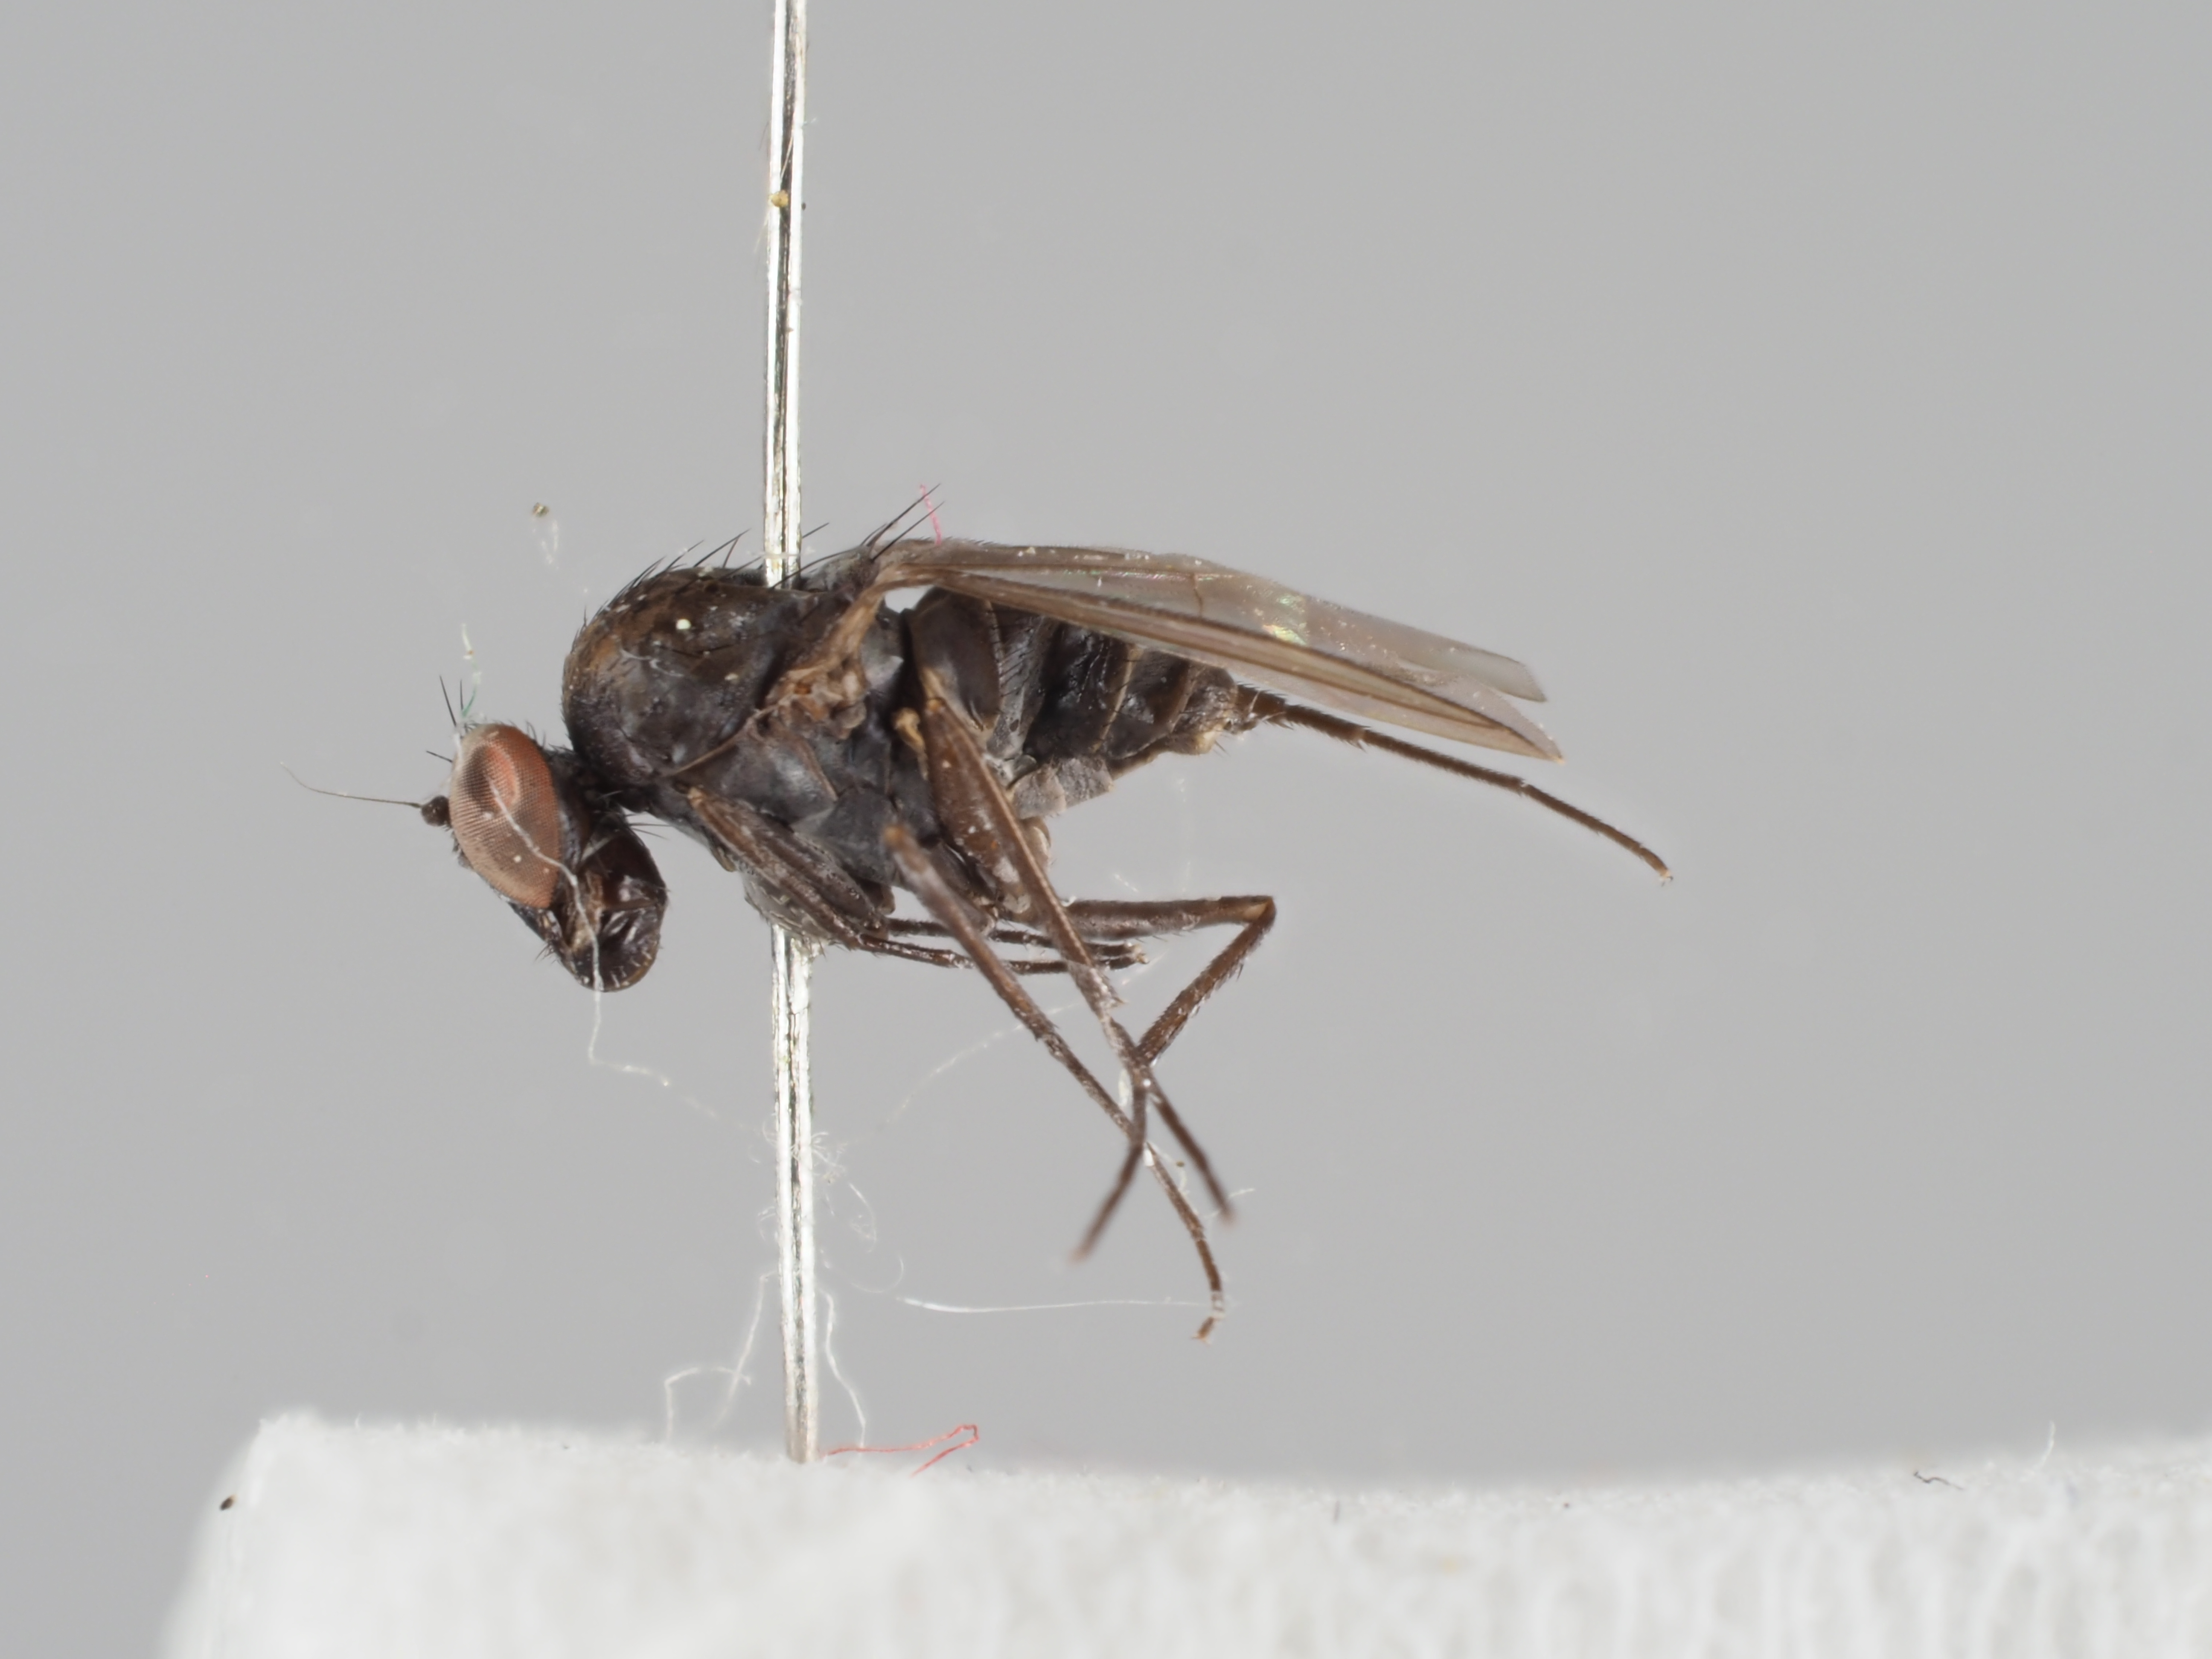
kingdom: Animalia
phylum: Arthropoda
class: Insecta
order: Diptera
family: Dolichopodidae
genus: Medetera
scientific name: Medetera vagans
